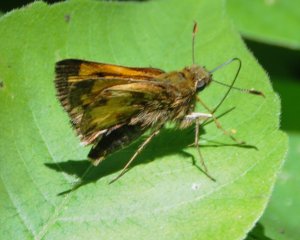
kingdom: Animalia
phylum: Arthropoda
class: Insecta
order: Lepidoptera
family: Hesperiidae
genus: Lon
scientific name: Lon hobomok
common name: Hobomok Skipper
